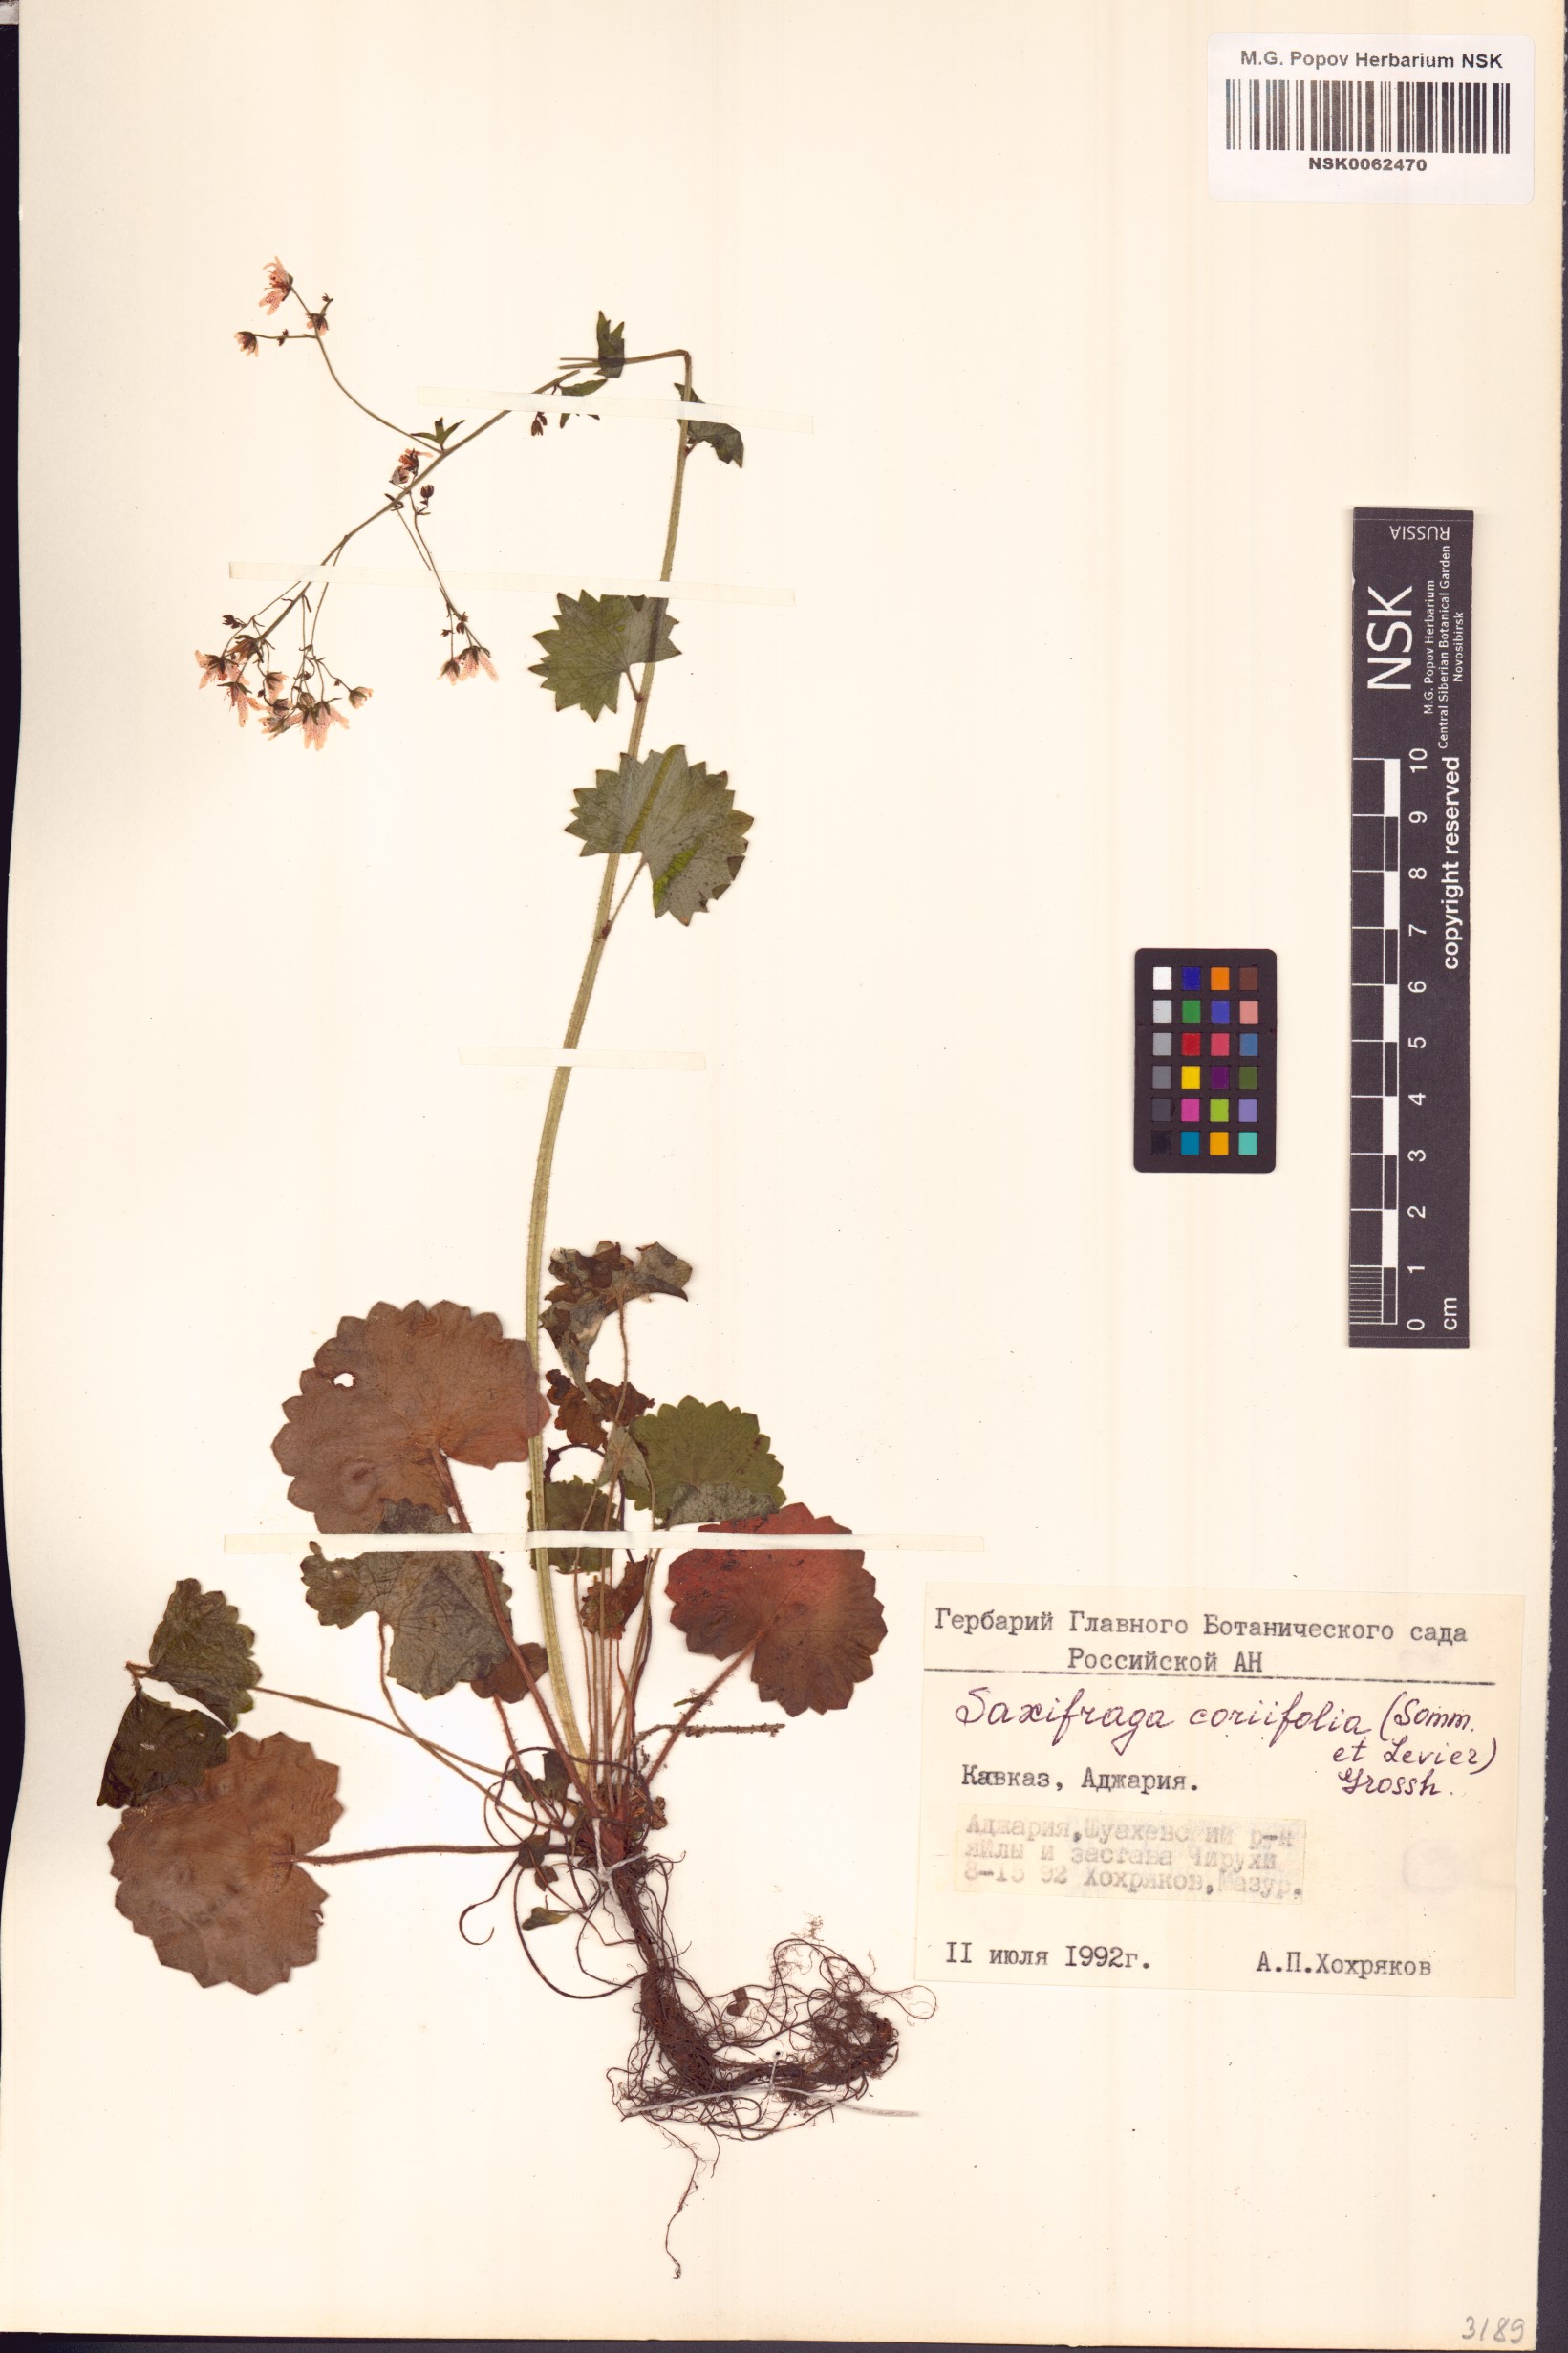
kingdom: Plantae
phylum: Tracheophyta
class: Magnoliopsida
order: Saxifragales
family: Saxifragaceae
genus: Saxifraga
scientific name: Saxifraga rotundifolia
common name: Round-leaved saxifrage
